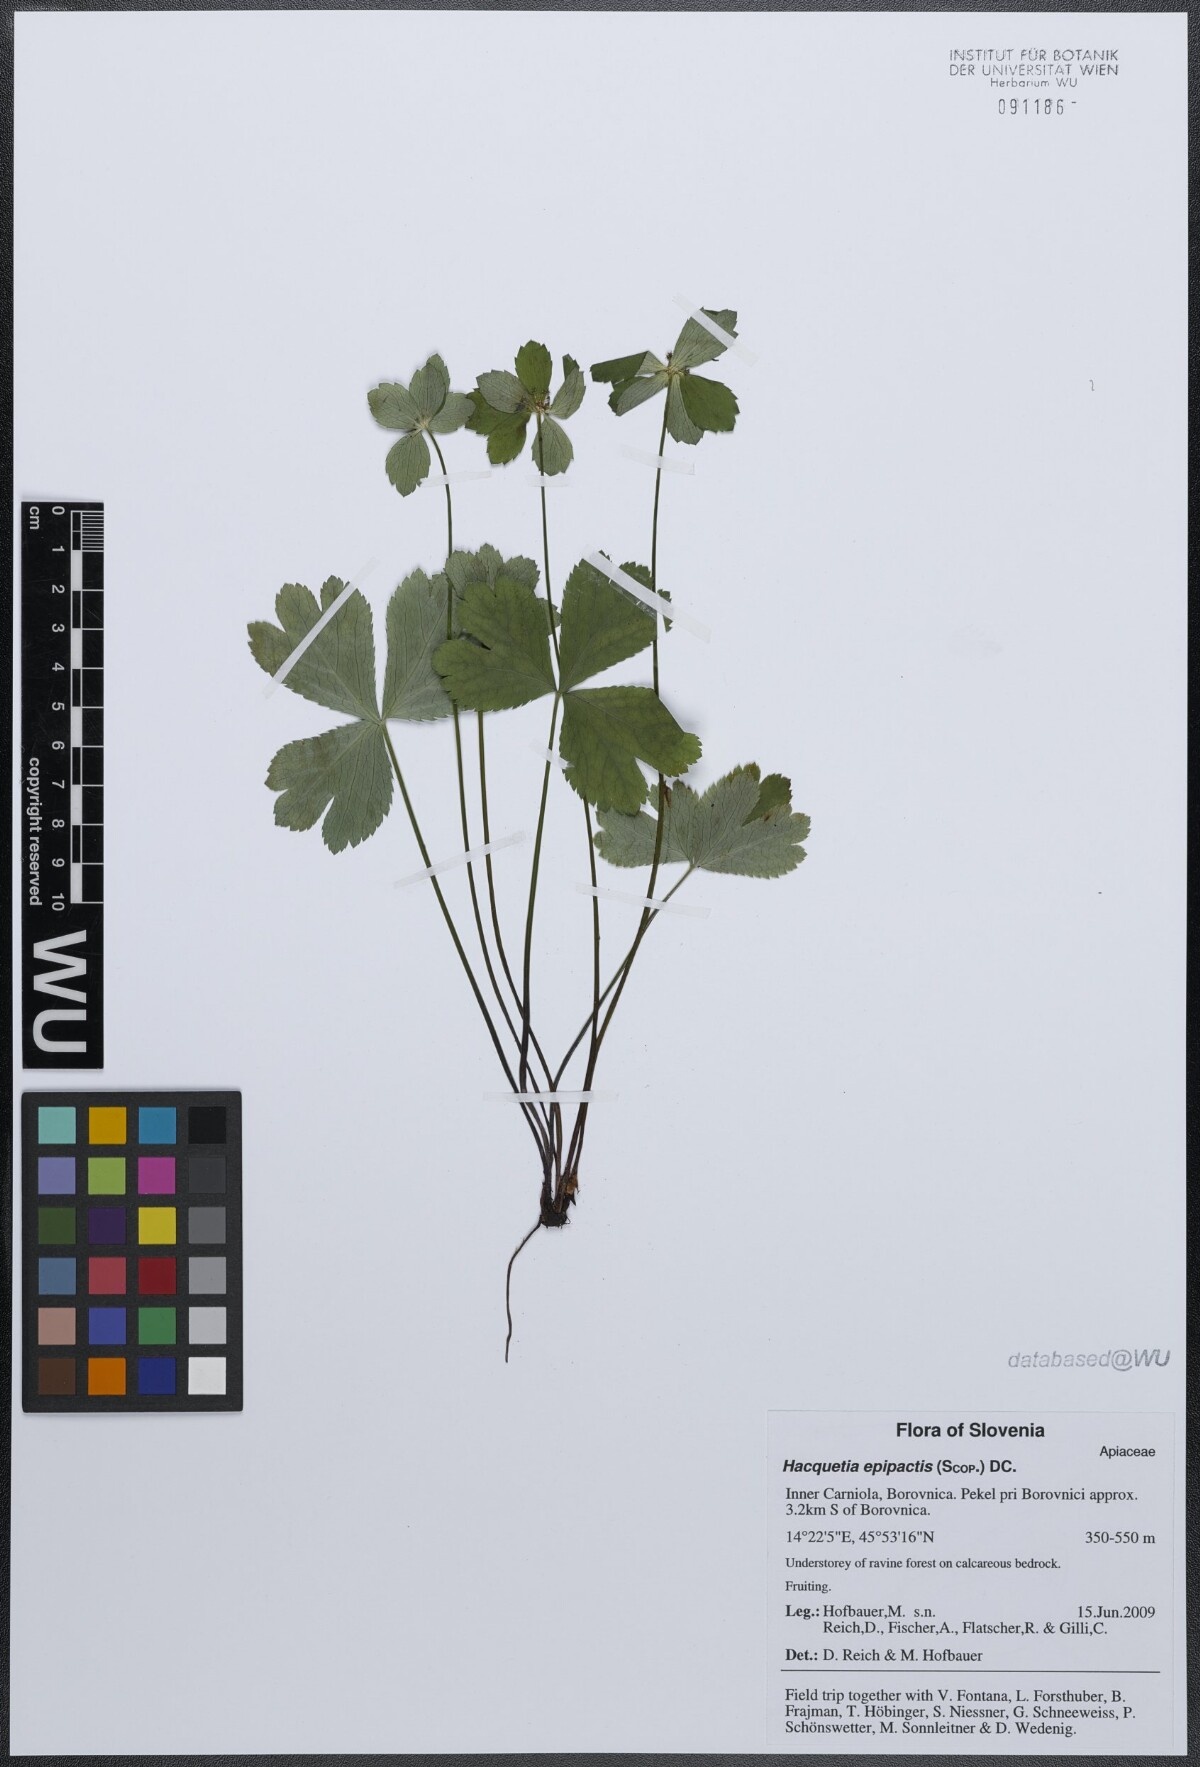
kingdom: Plantae
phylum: Tracheophyta
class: Magnoliopsida
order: Apiales
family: Apiaceae
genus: Sanicula
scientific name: Sanicula epipactis
